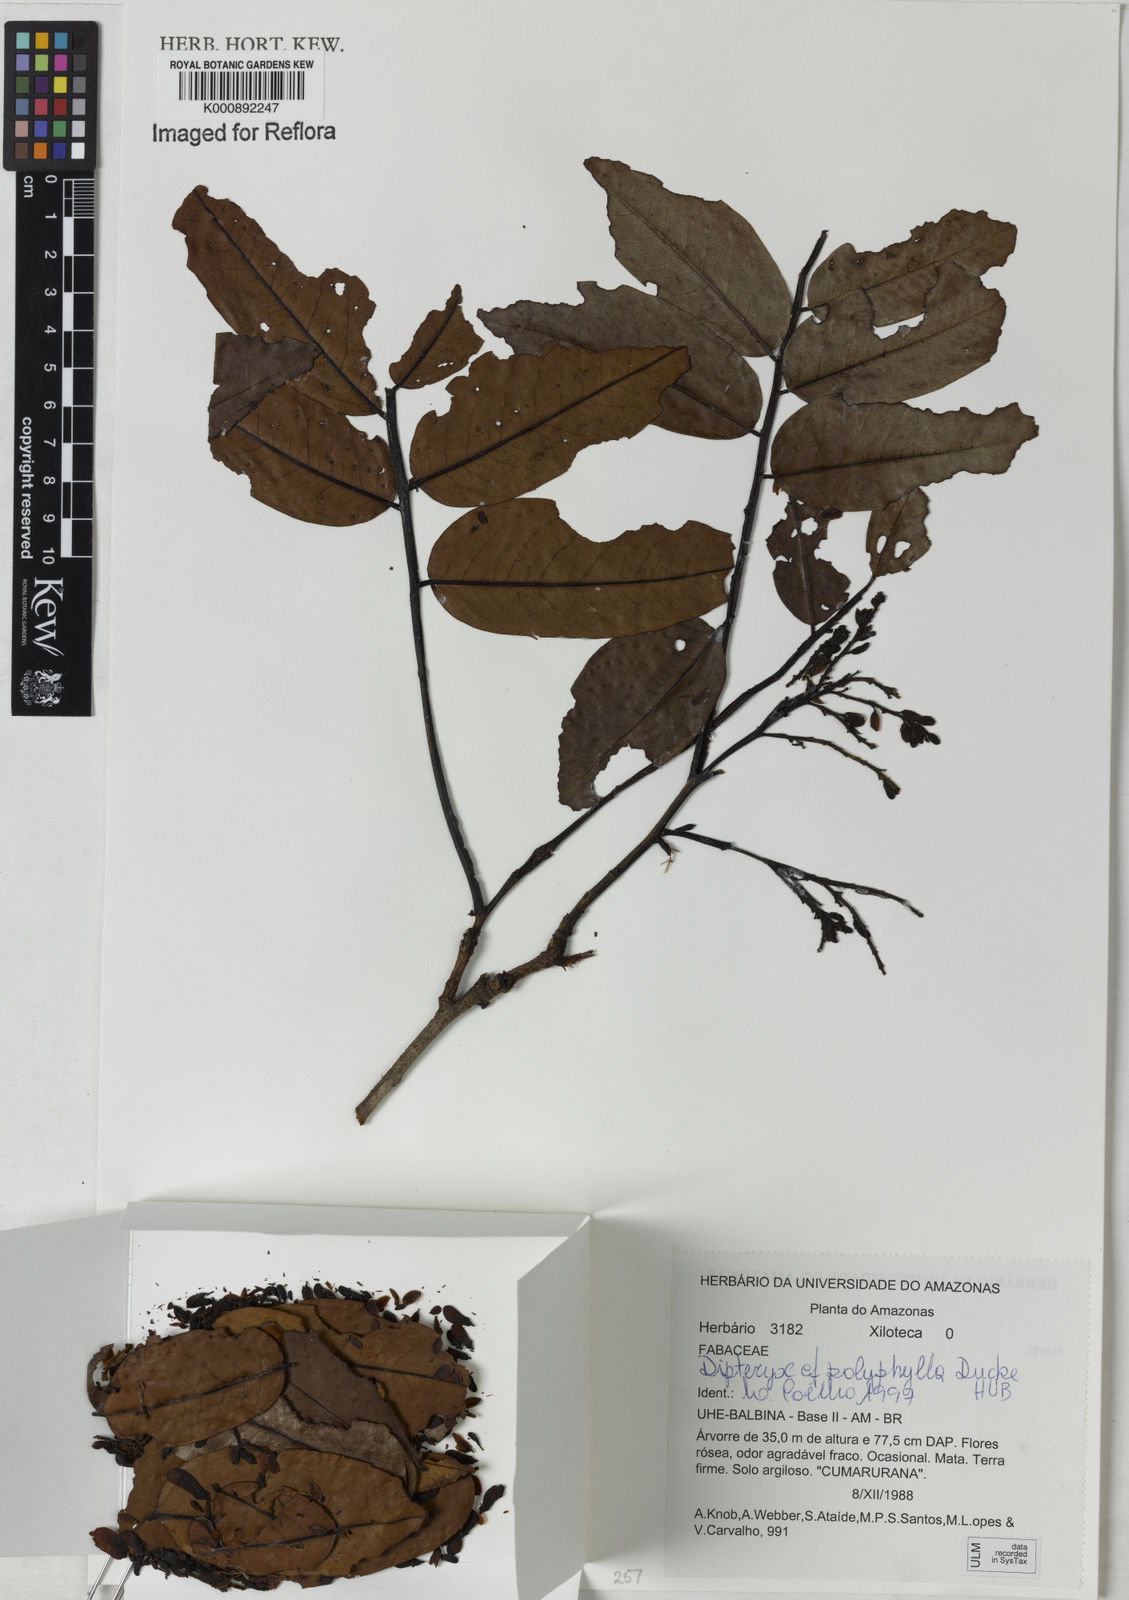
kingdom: Plantae
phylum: Tracheophyta
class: Magnoliopsida
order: Fabales
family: Fabaceae
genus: Dipteryx
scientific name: Dipteryx
